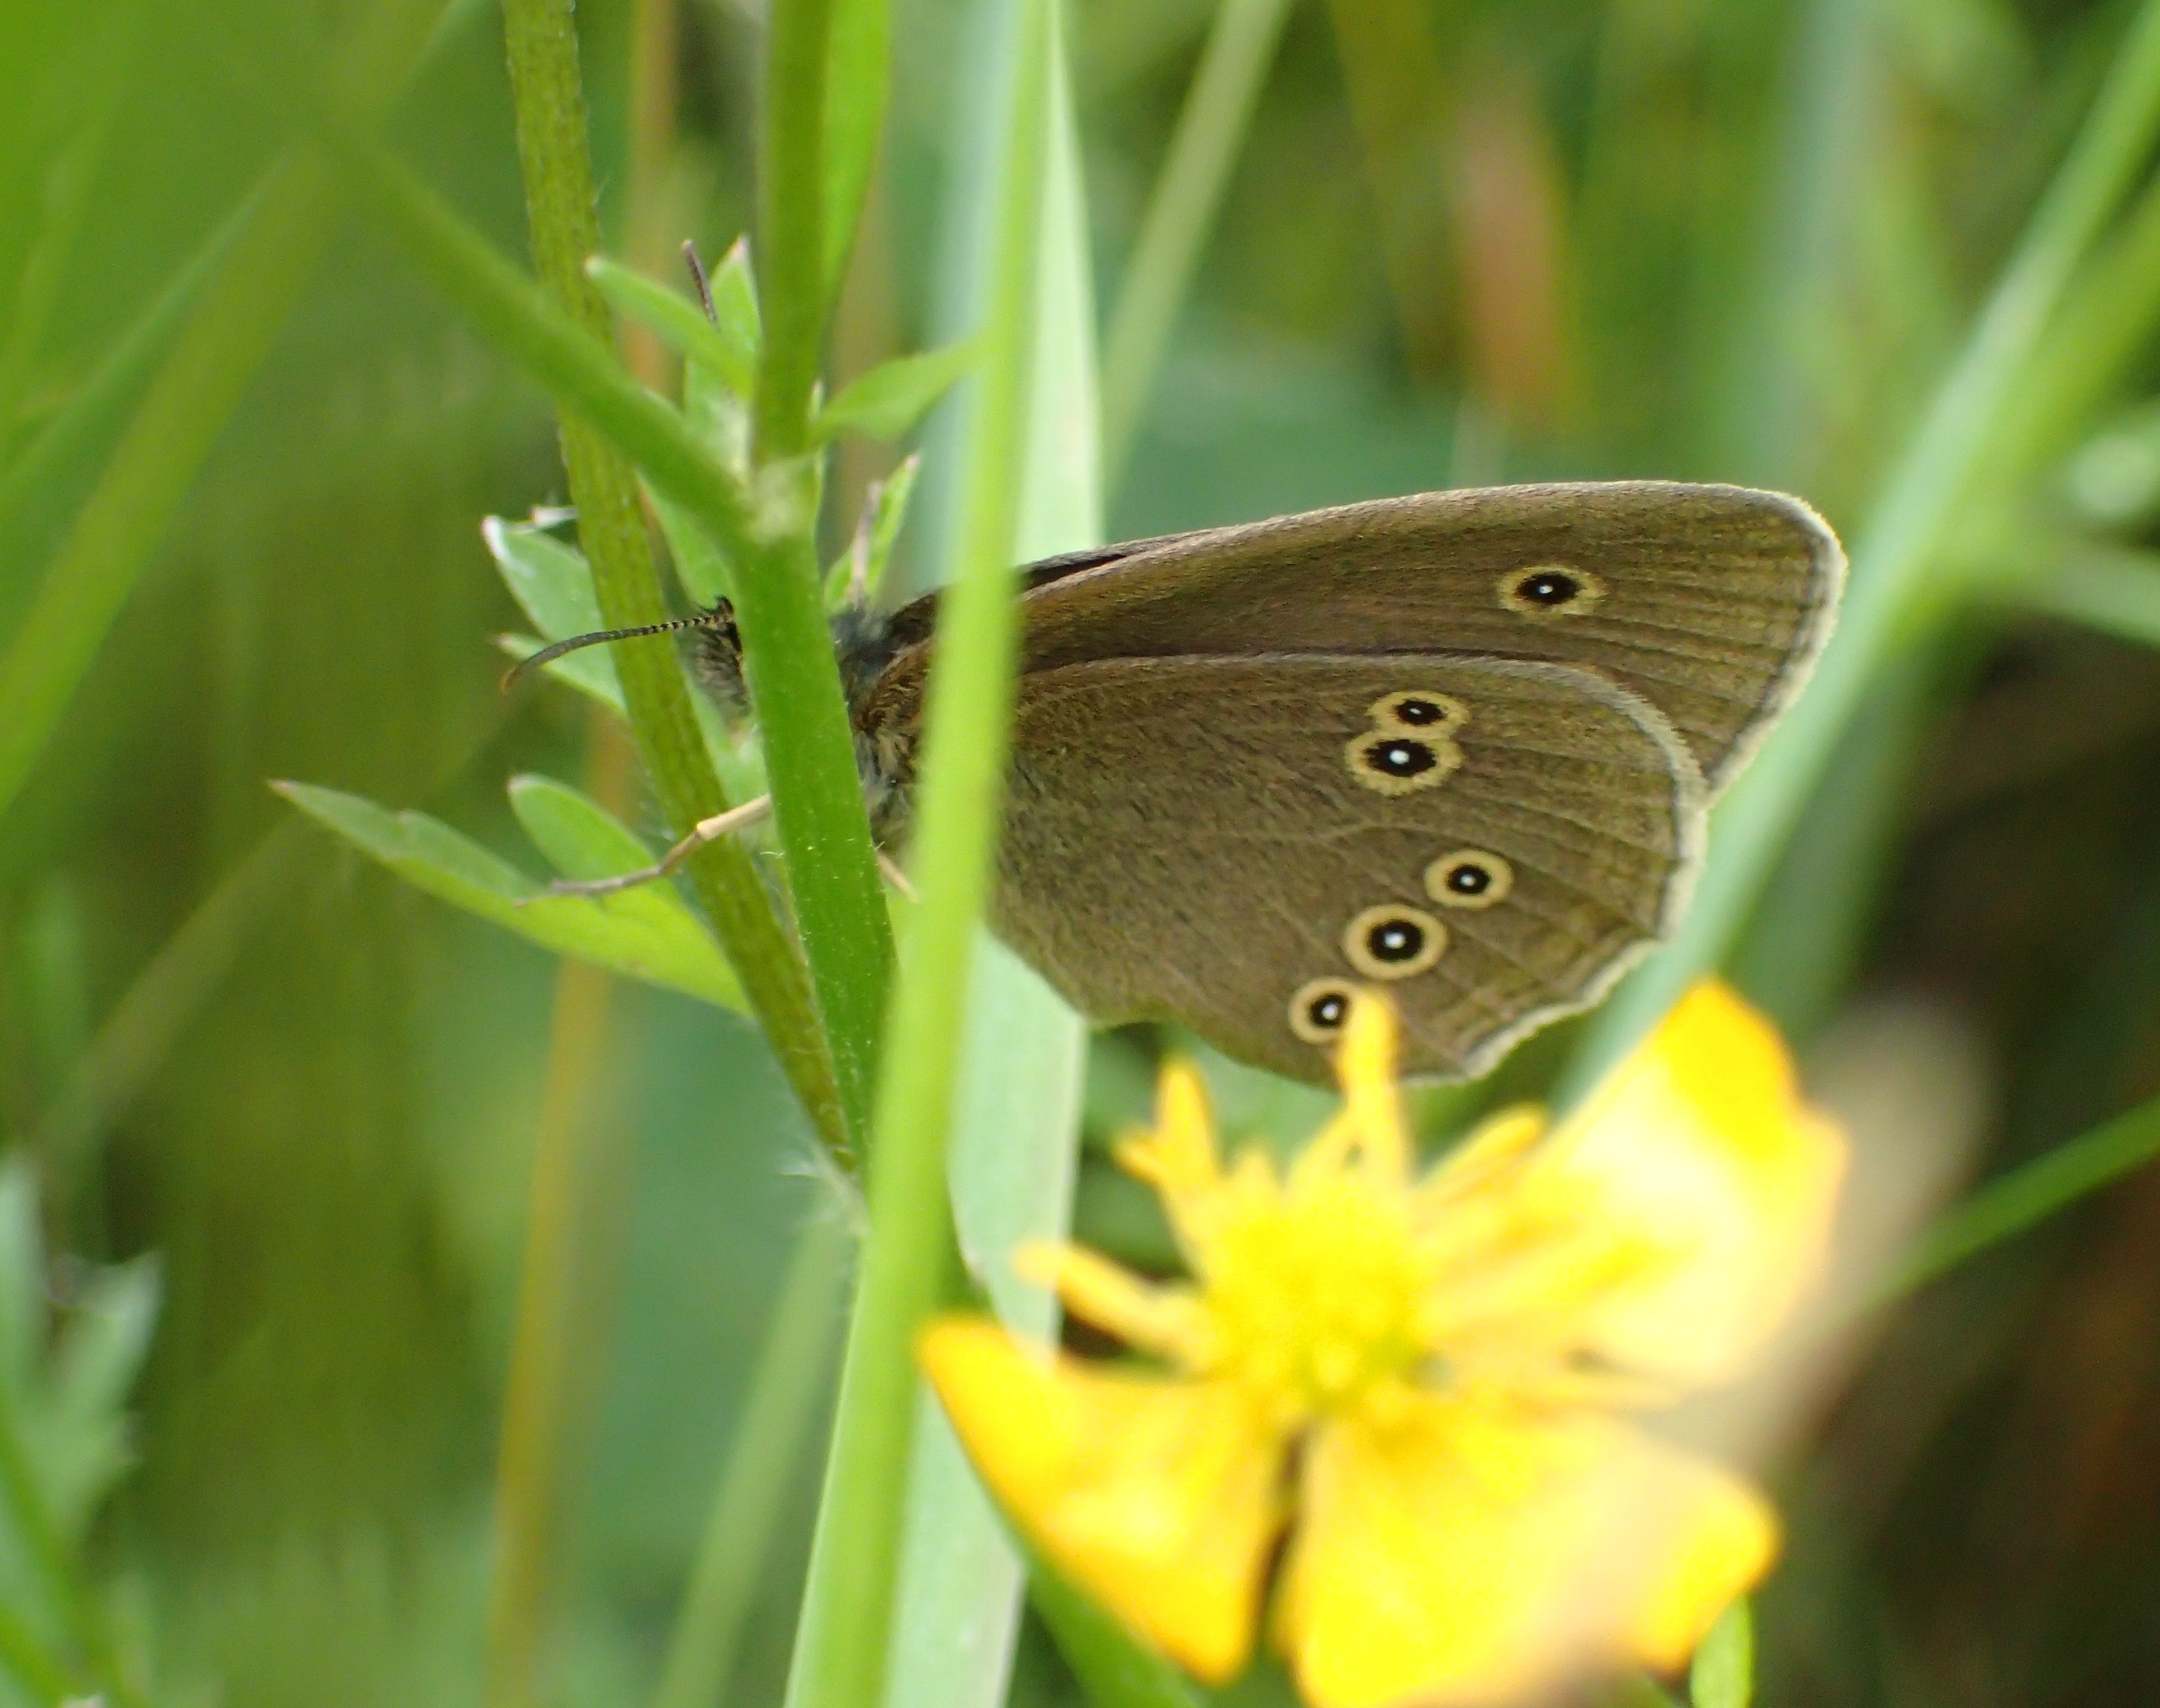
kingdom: Animalia
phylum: Arthropoda
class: Insecta
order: Lepidoptera
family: Nymphalidae
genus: Aphantopus
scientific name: Aphantopus hyperantus
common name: Engrandøje
